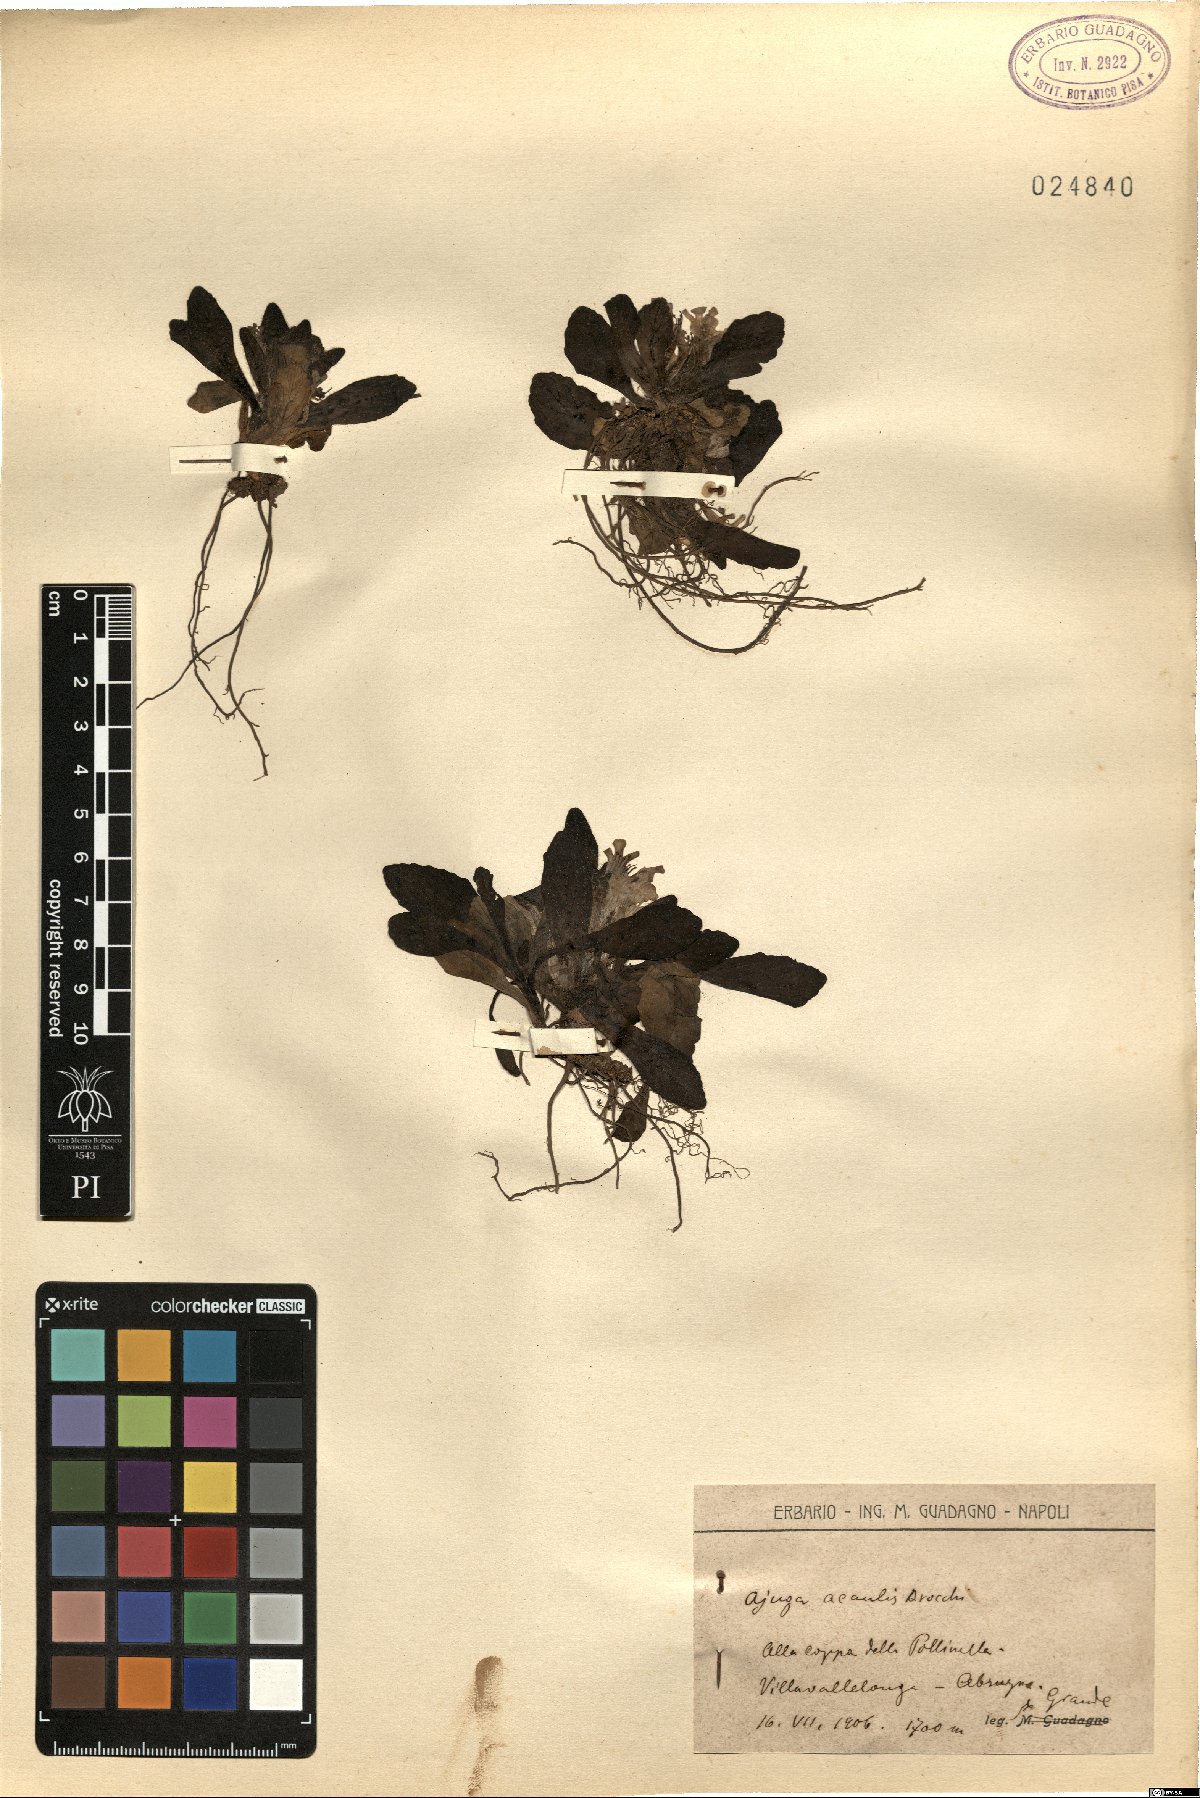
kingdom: Plantae
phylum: Tracheophyta
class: Magnoliopsida
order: Lamiales
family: Lamiaceae
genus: Ajuga
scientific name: Ajuga tenorei
